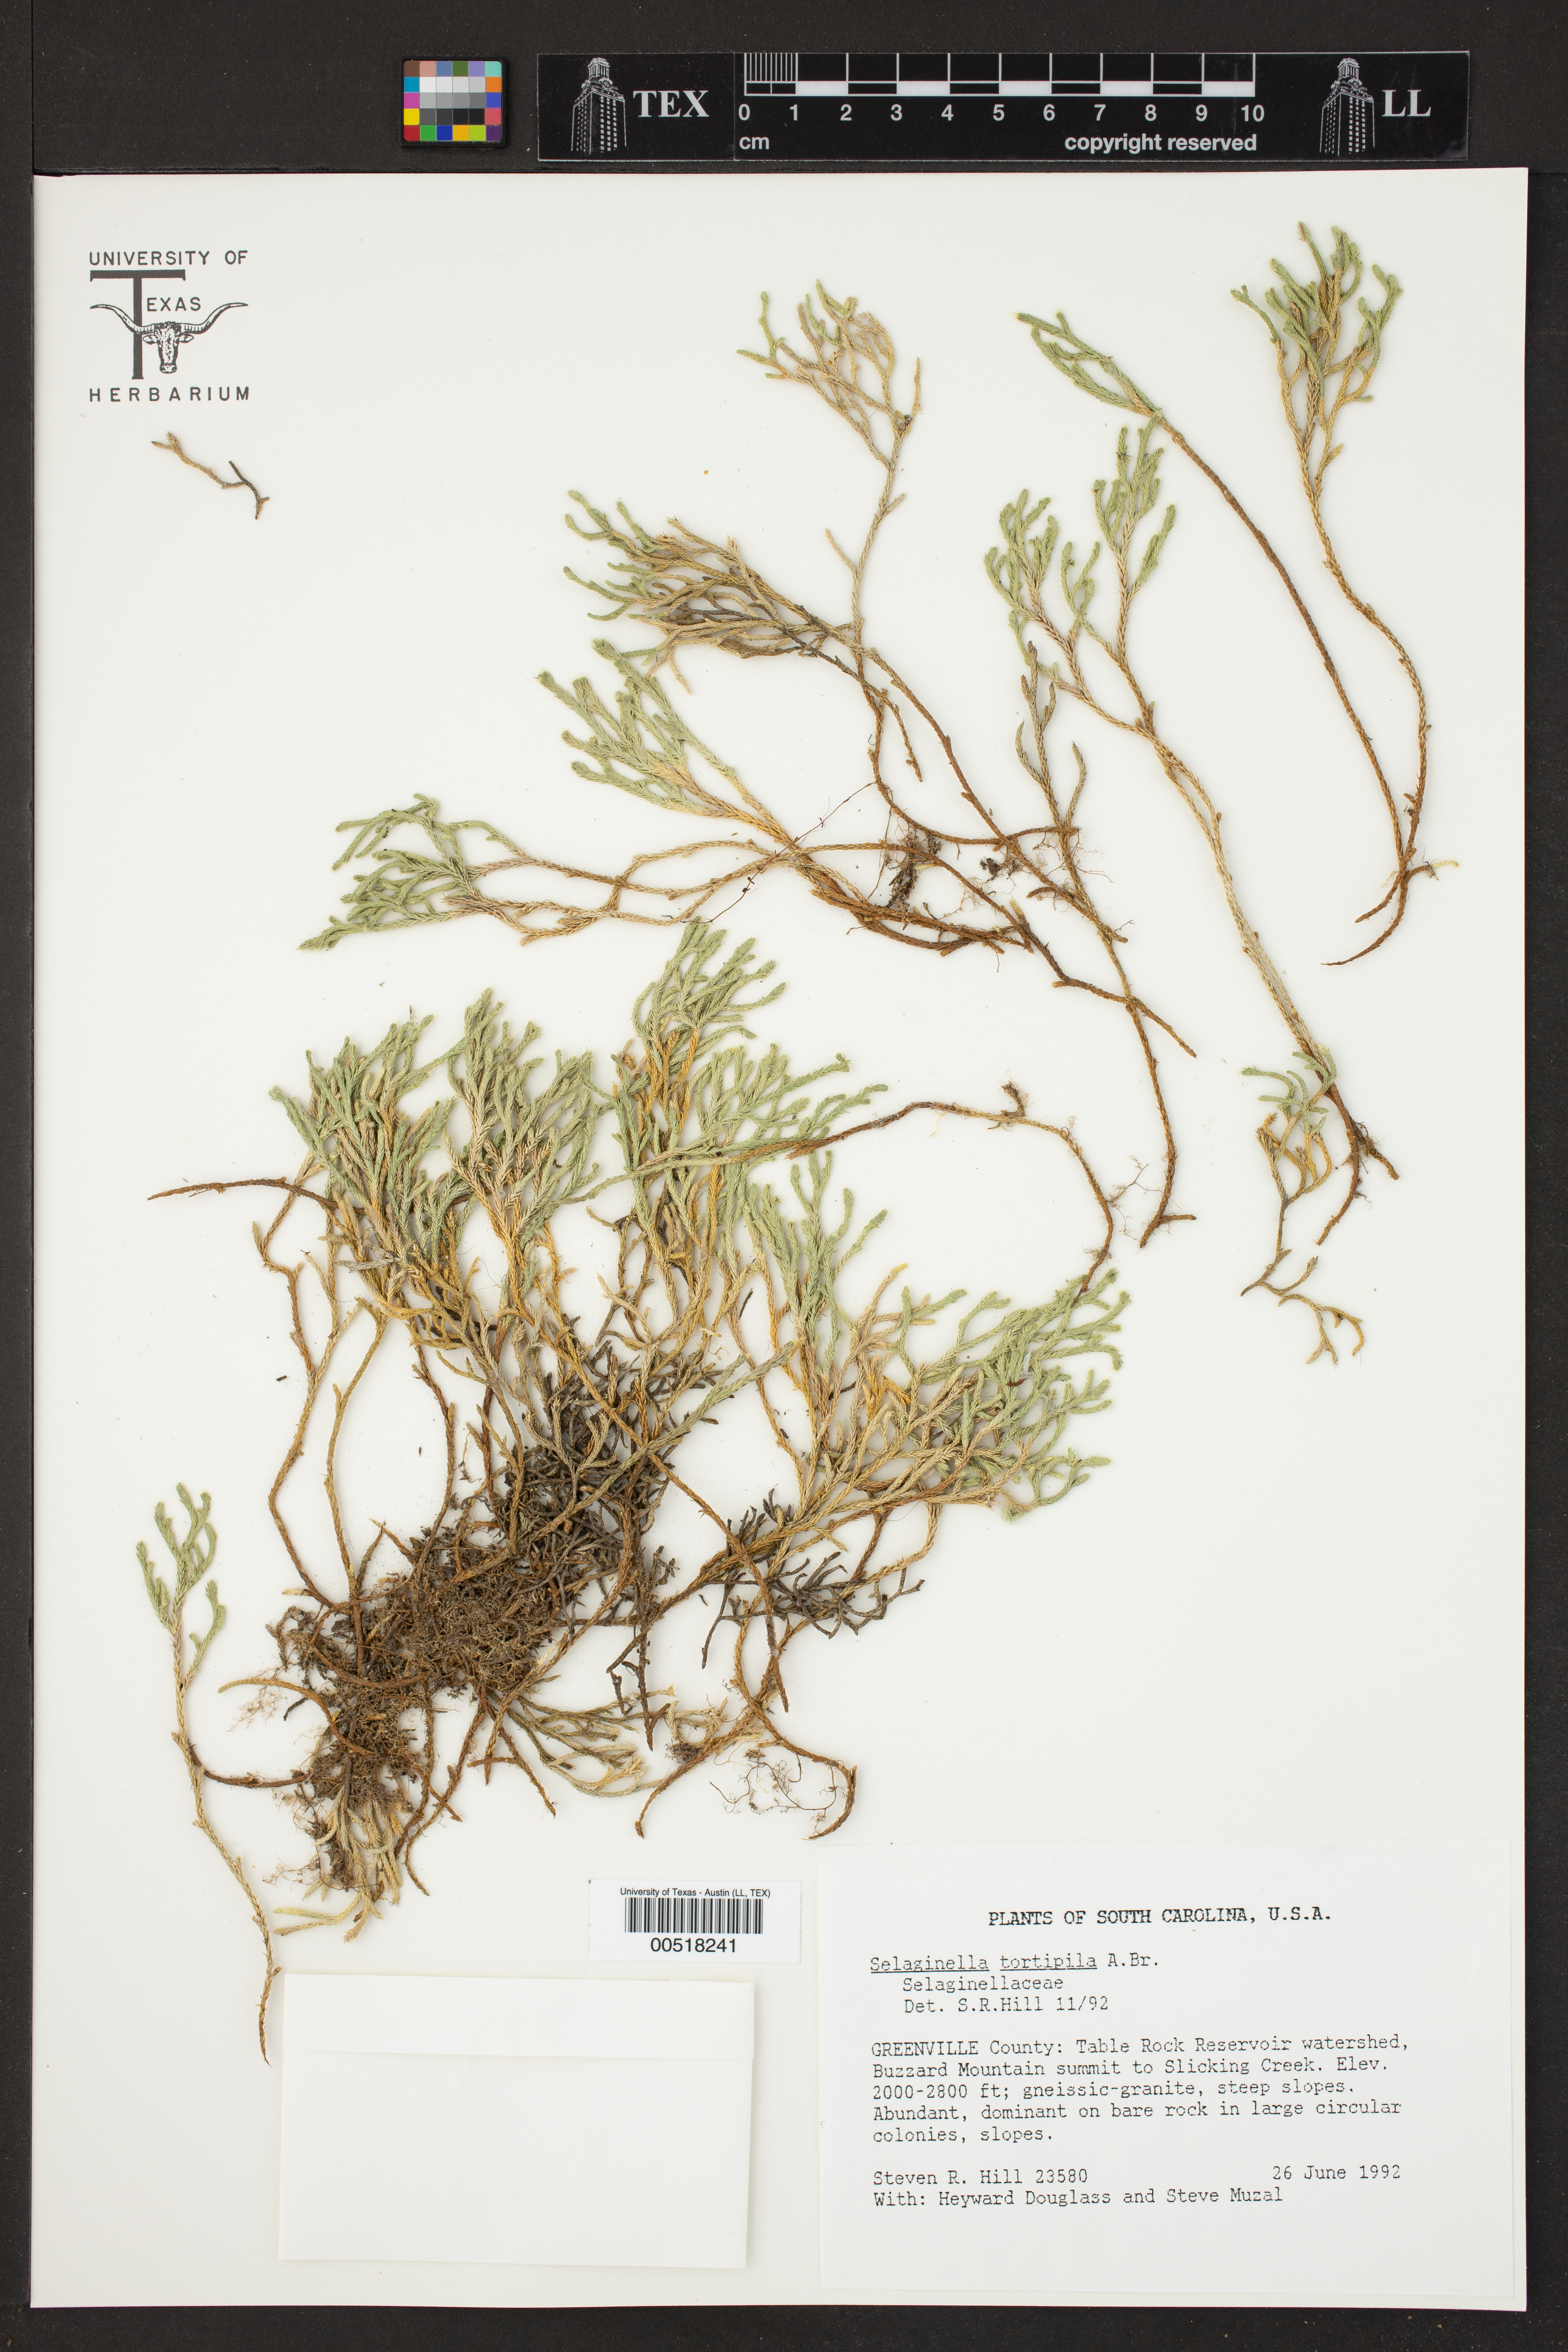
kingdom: Plantae
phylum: Tracheophyta
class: Lycopodiopsida
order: Selaginellales
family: Selaginellaceae
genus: Selaginella
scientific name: Selaginella tortipila
